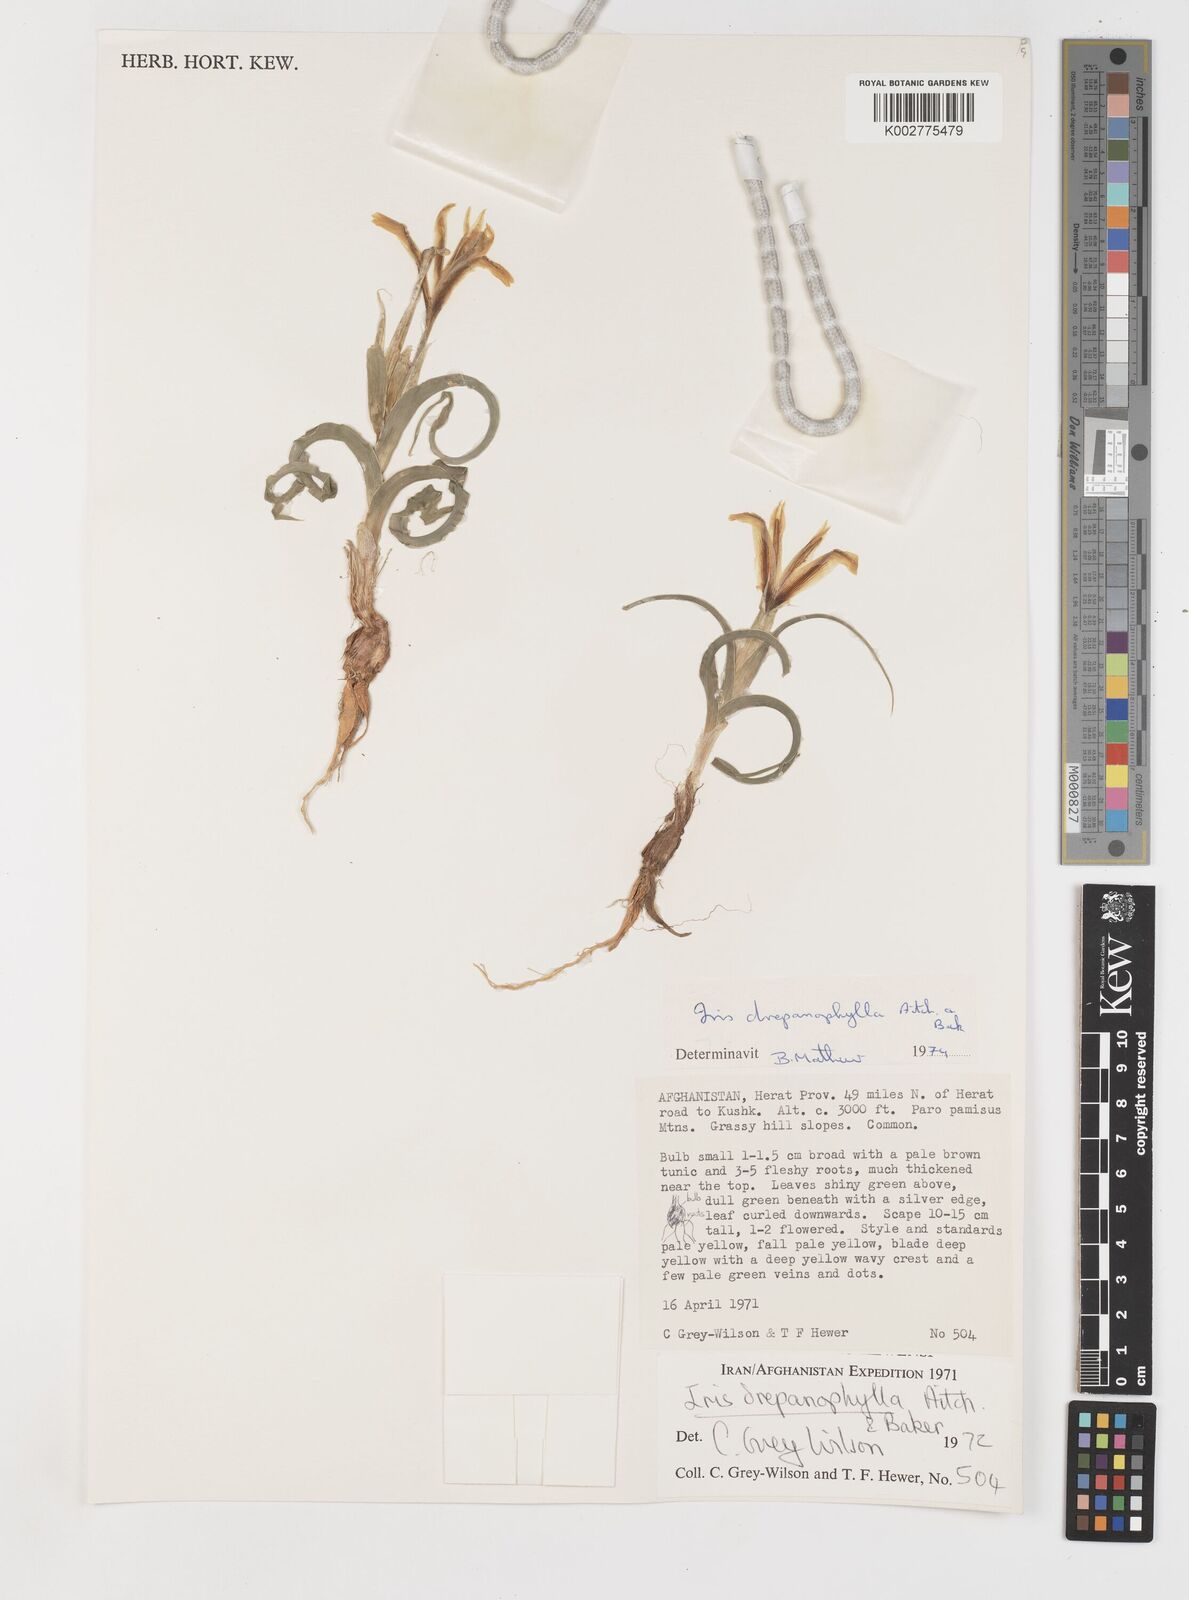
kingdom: Plantae
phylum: Tracheophyta
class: Liliopsida
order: Asparagales
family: Iridaceae
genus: Iris
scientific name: Iris drepanophylla
